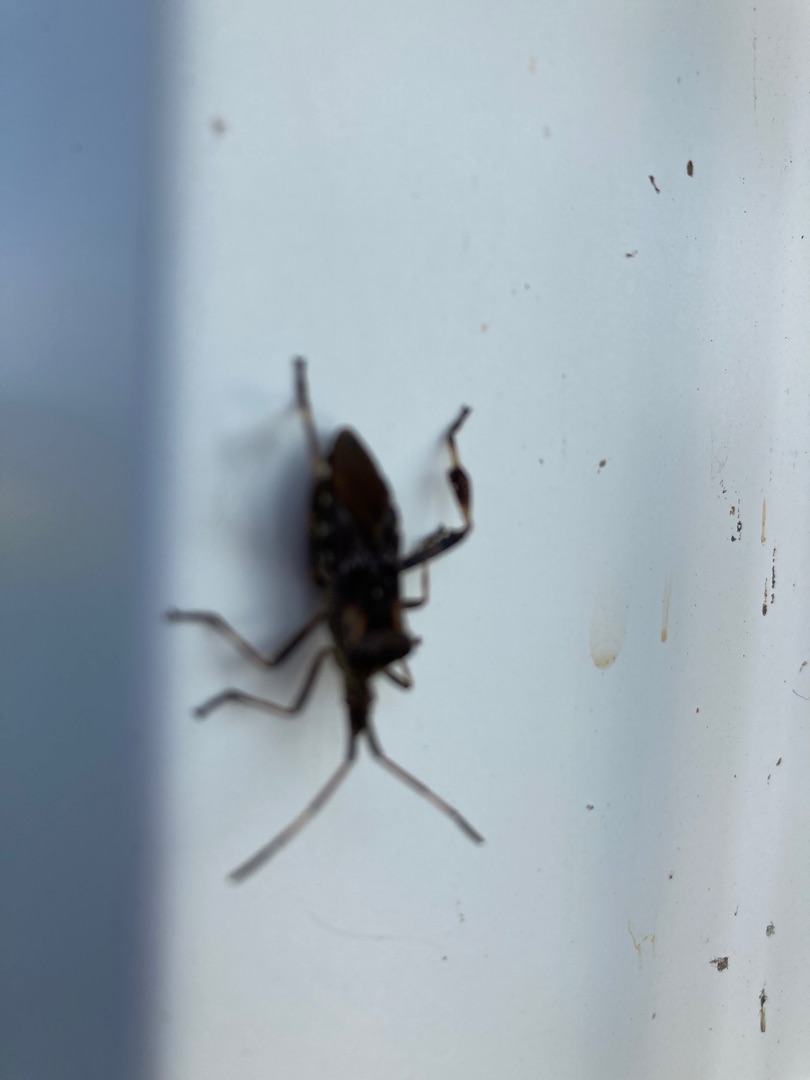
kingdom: Animalia
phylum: Arthropoda
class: Insecta
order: Hemiptera
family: Coreidae
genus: Leptoglossus
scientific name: Leptoglossus occidentalis
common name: Amerikansk fyrretæge
